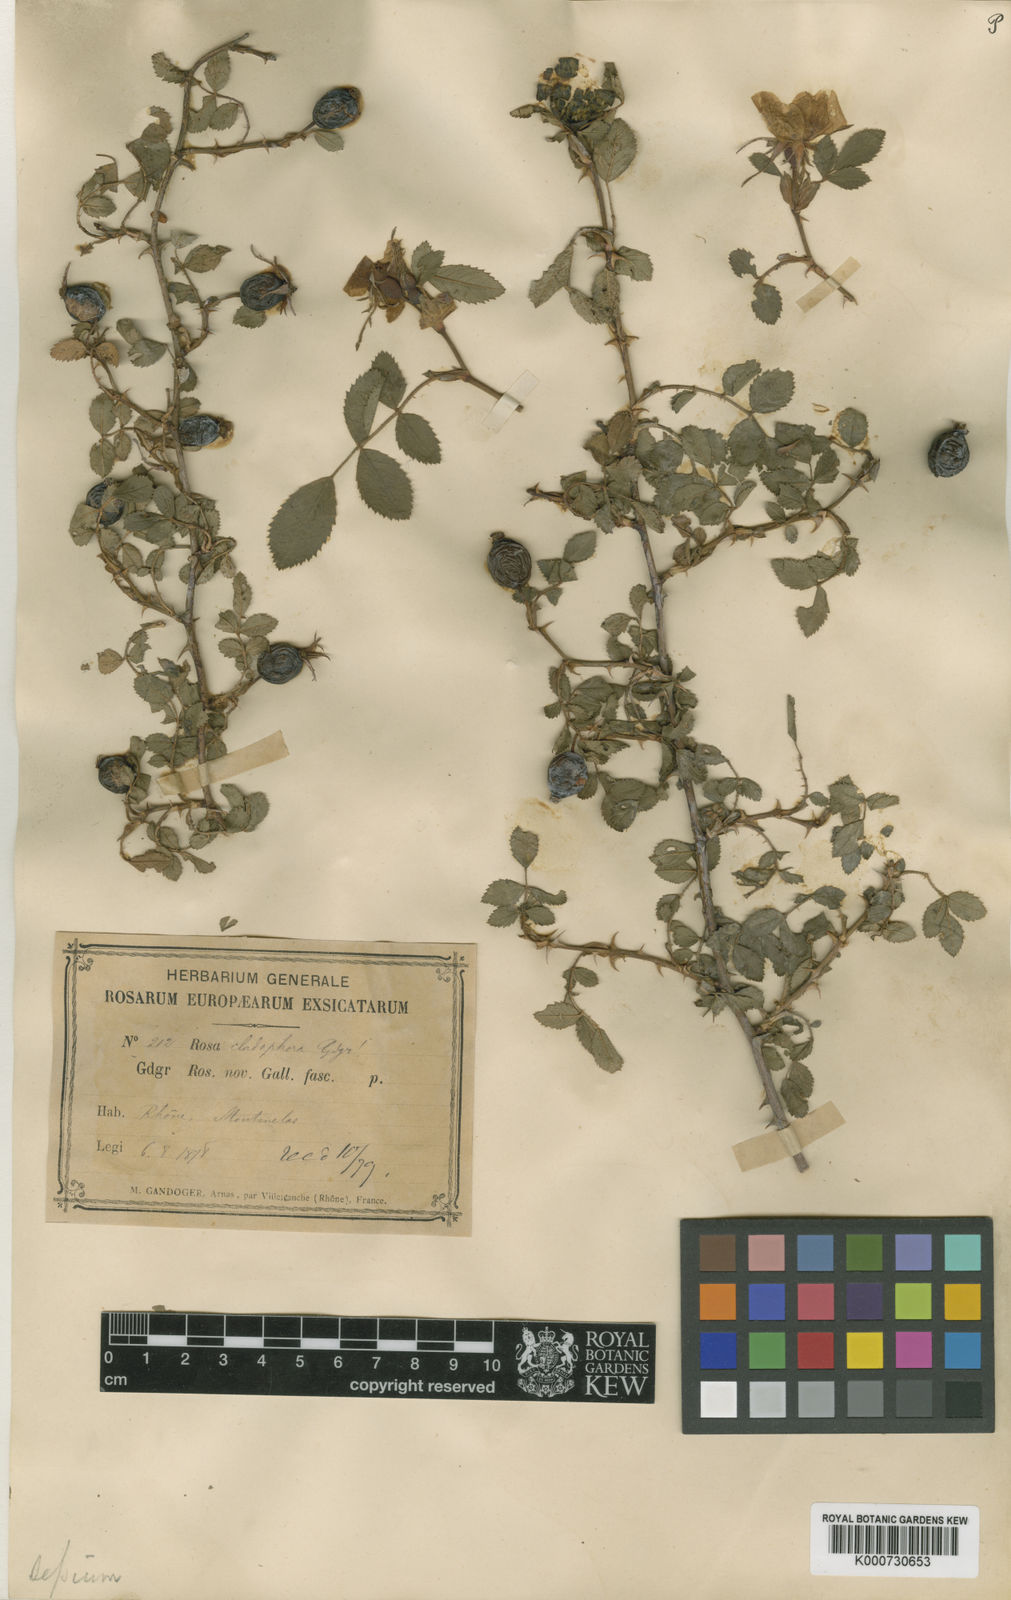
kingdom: Plantae
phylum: Tracheophyta
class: Magnoliopsida
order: Rosales
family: Rosaceae
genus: Rosa
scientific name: Rosa agrestis
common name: Fieldbriar
